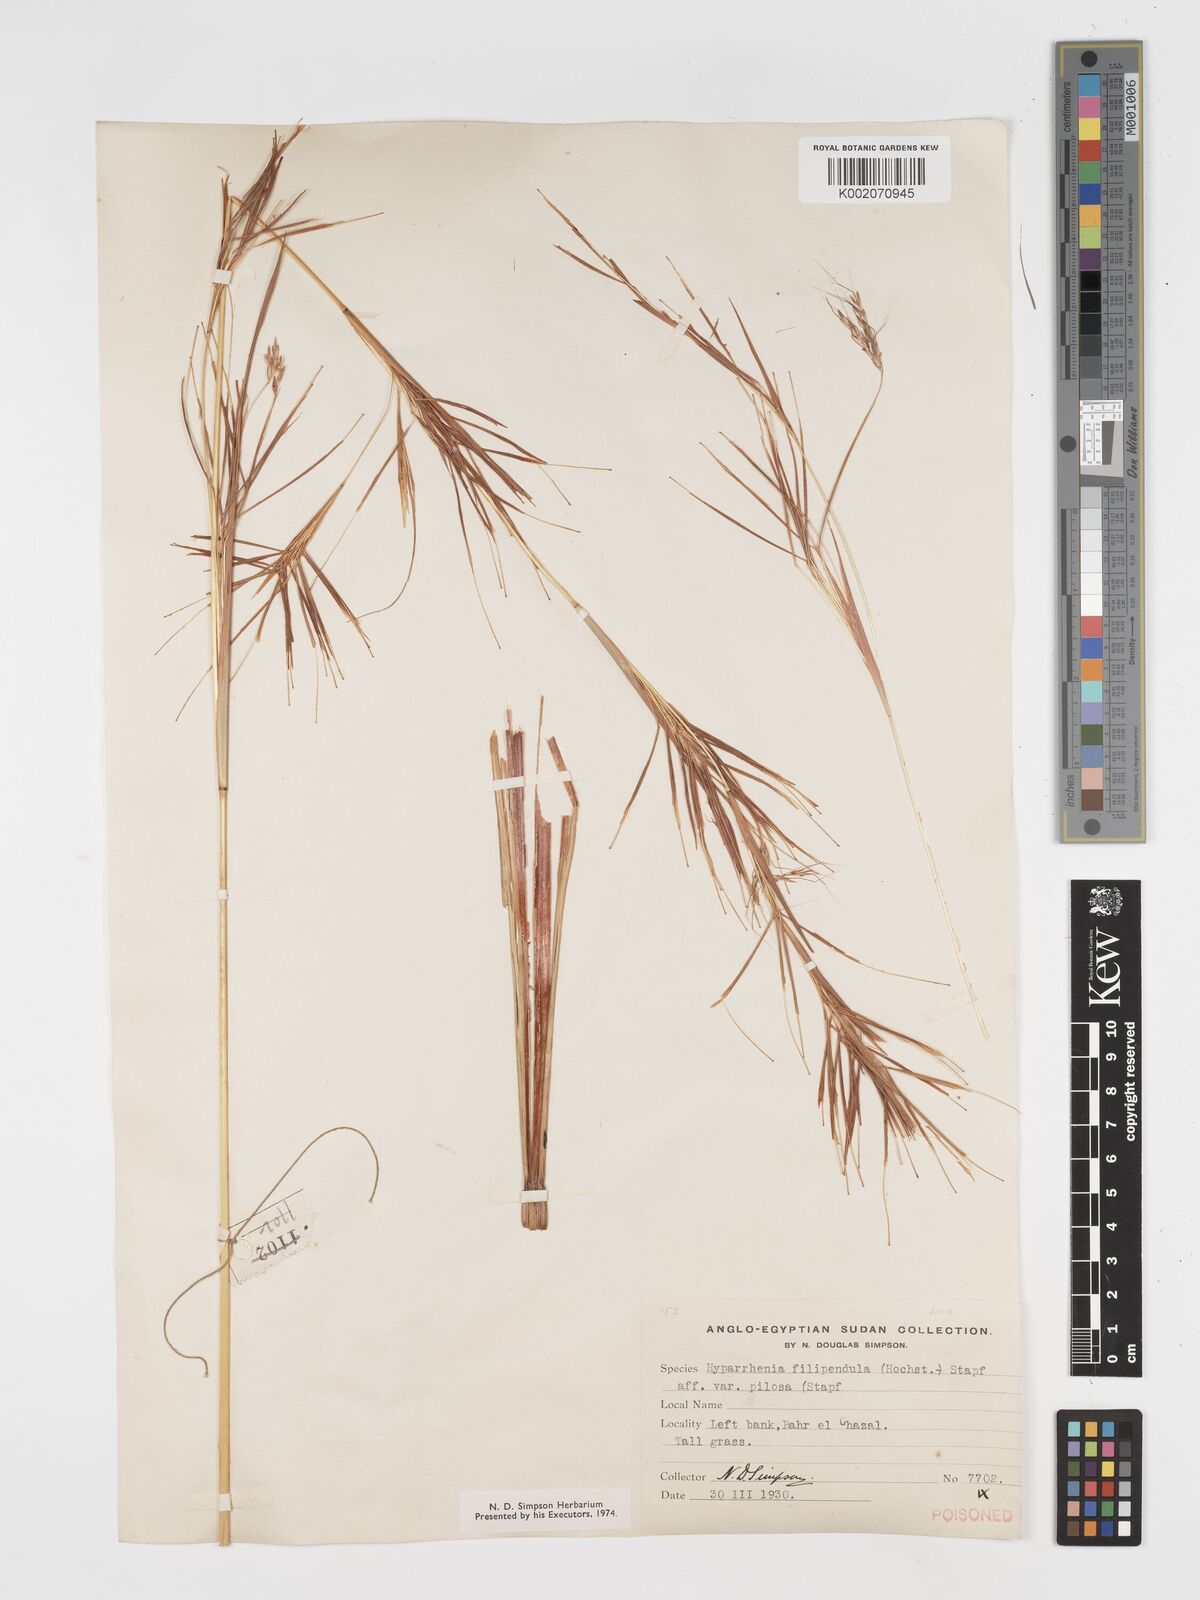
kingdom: Plantae
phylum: Tracheophyta
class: Liliopsida
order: Poales
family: Poaceae
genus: Hyparrhenia
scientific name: Hyparrhenia filipendula
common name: Tambookie grass
